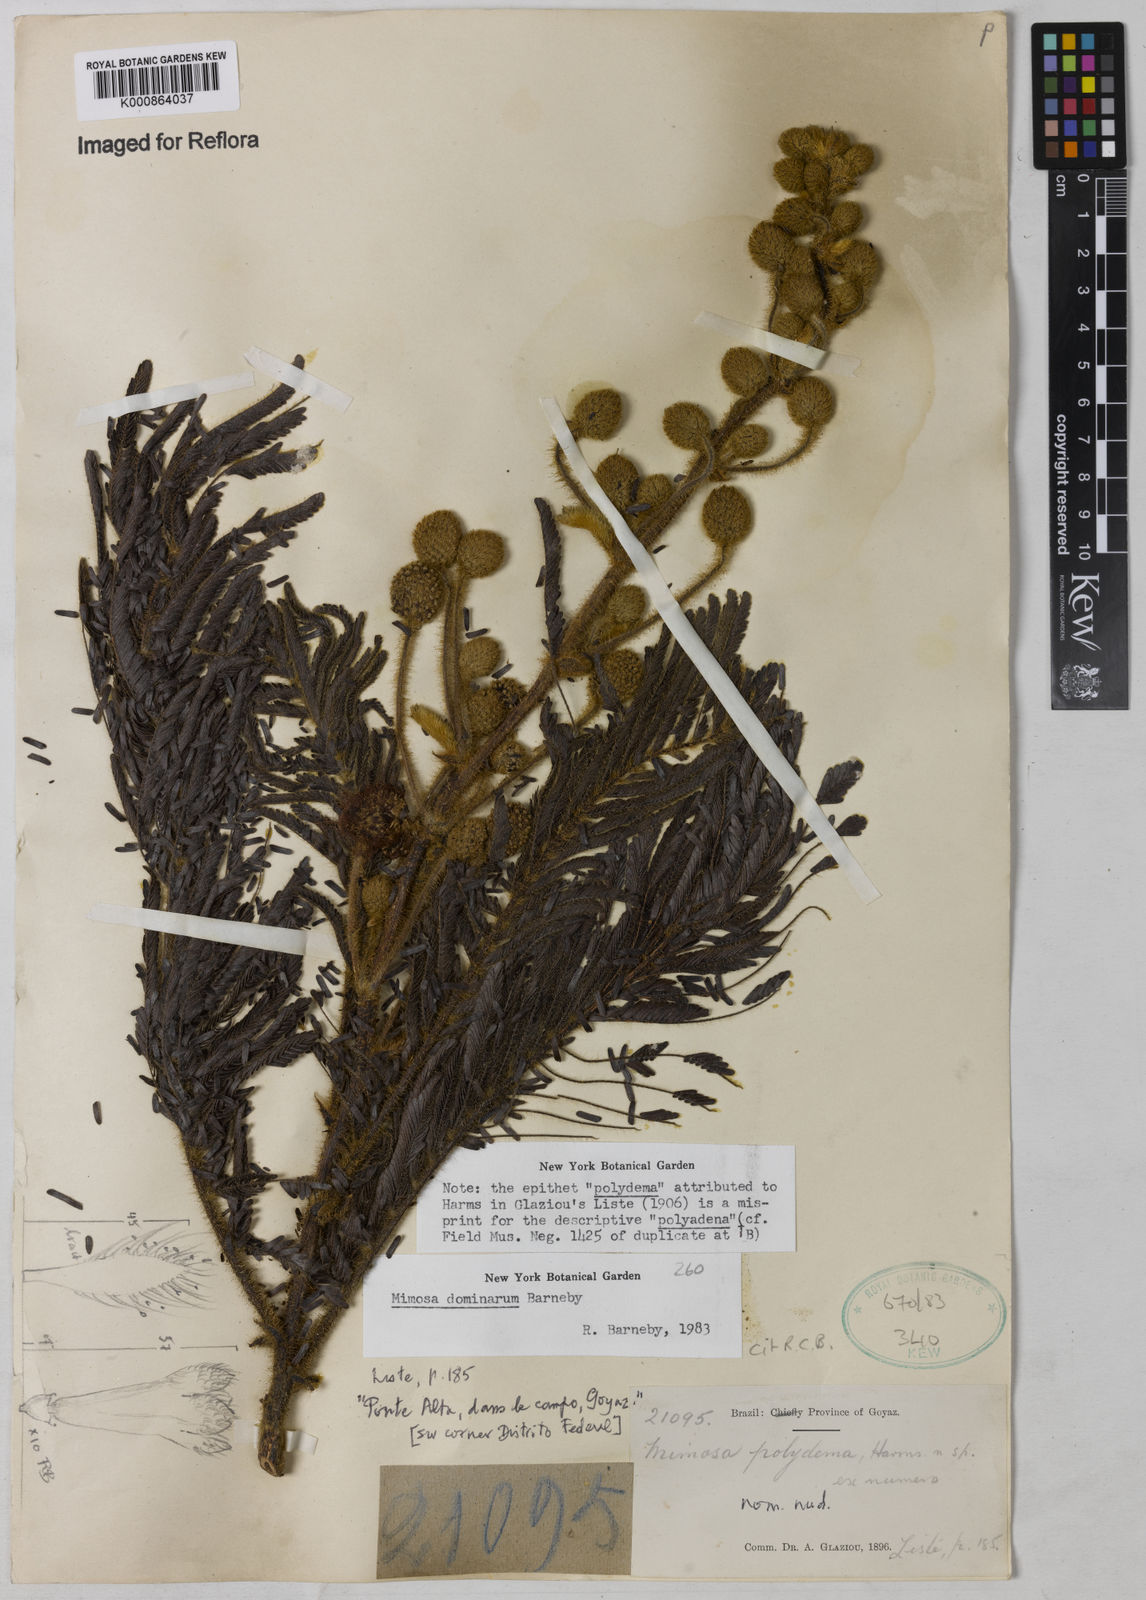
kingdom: Plantae
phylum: Tracheophyta
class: Magnoliopsida
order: Fabales
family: Fabaceae
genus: Mimosa
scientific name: Mimosa dominarum
